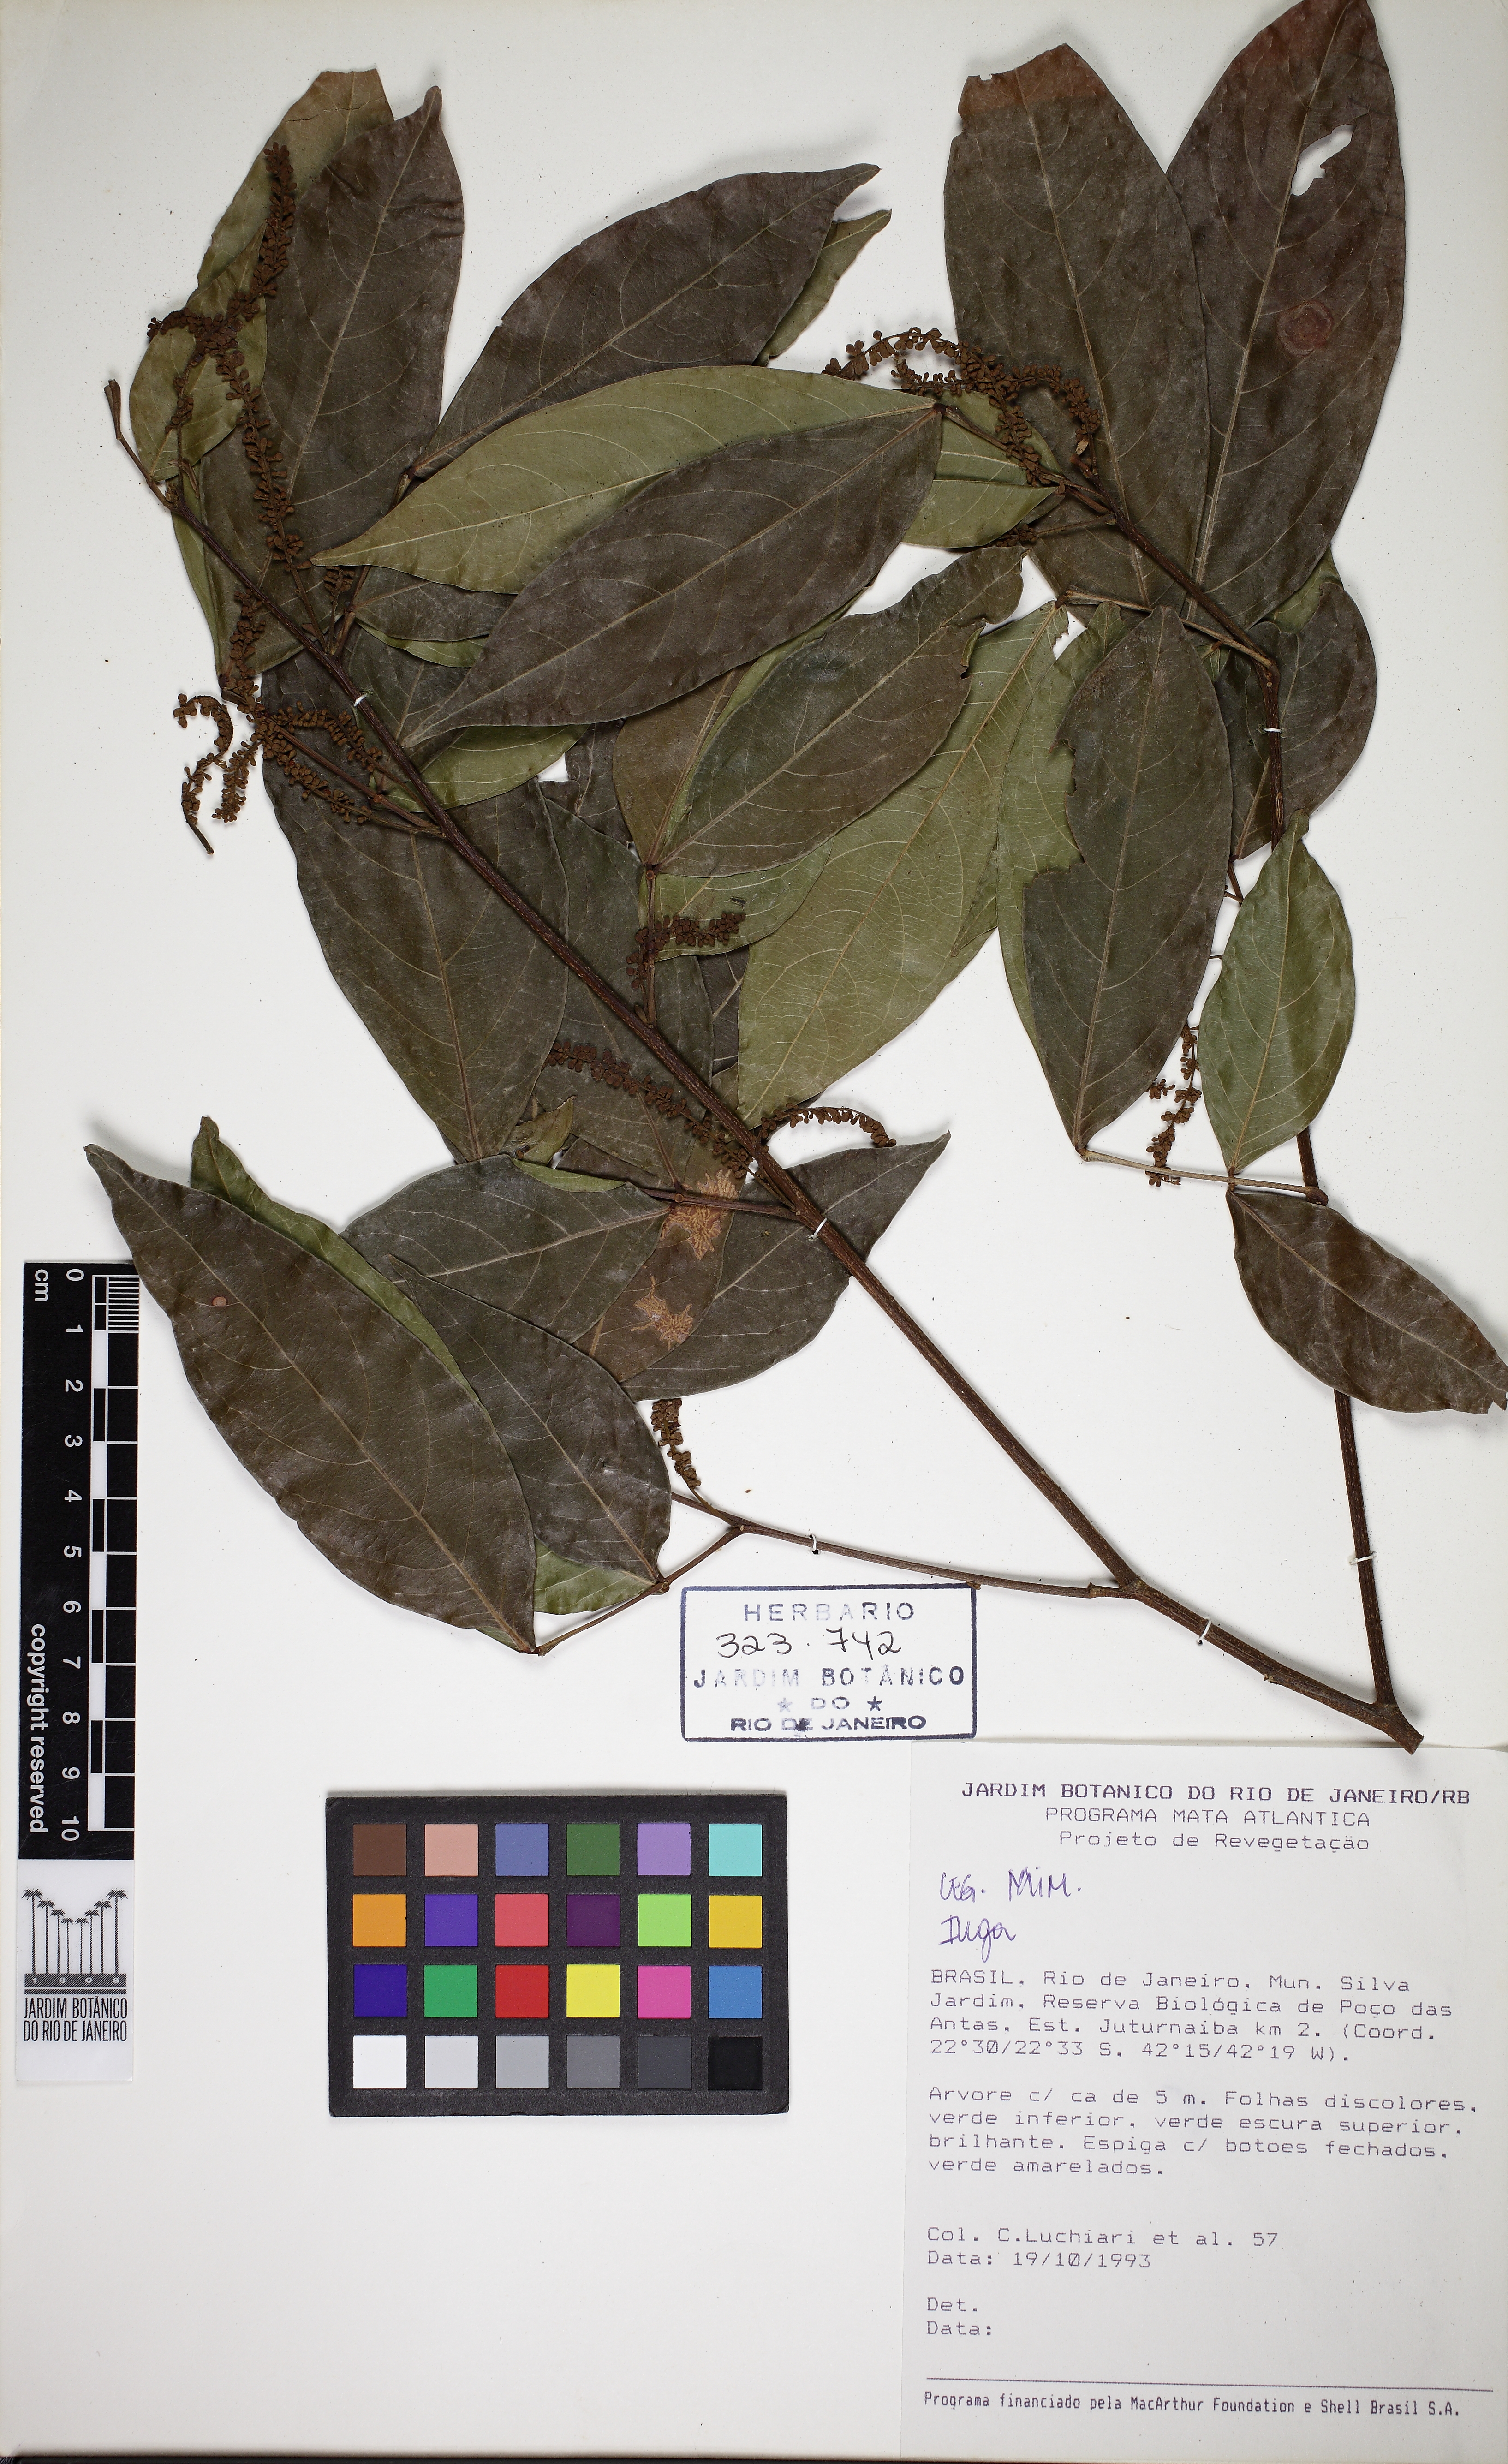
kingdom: Plantae
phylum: Tracheophyta
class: Magnoliopsida
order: Fabales
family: Fabaceae
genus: Inga
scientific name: Inga marginata
